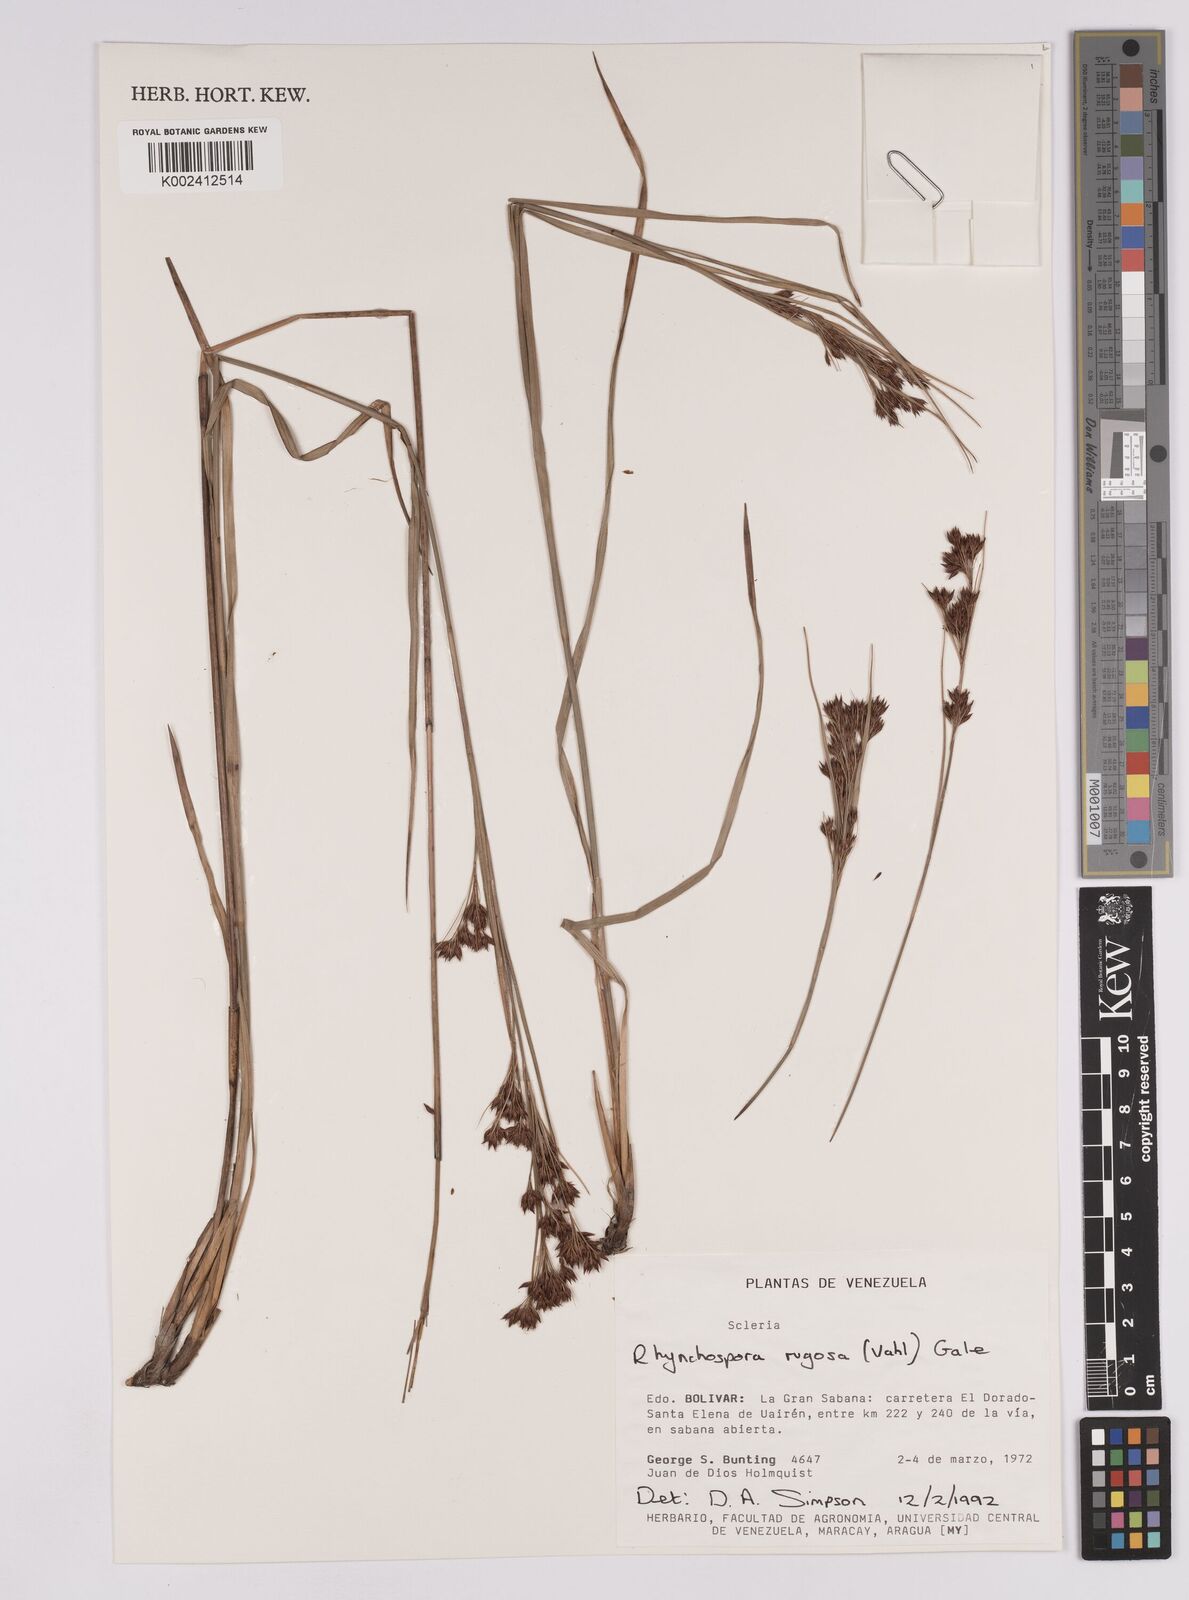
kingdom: Plantae
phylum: Tracheophyta
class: Liliopsida
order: Poales
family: Cyperaceae
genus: Rhynchospora
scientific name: Rhynchospora rugosa
